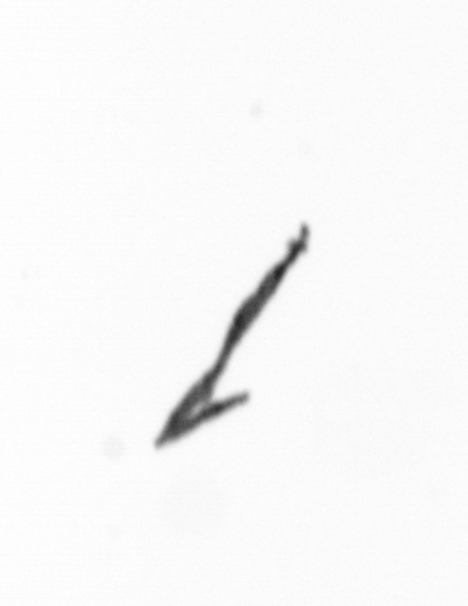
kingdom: Bacteria
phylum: Cyanobacteria
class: Cyanobacteriia
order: Cyanobacteriales
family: Microcoleaceae
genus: Trichodesmium
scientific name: Trichodesmium
